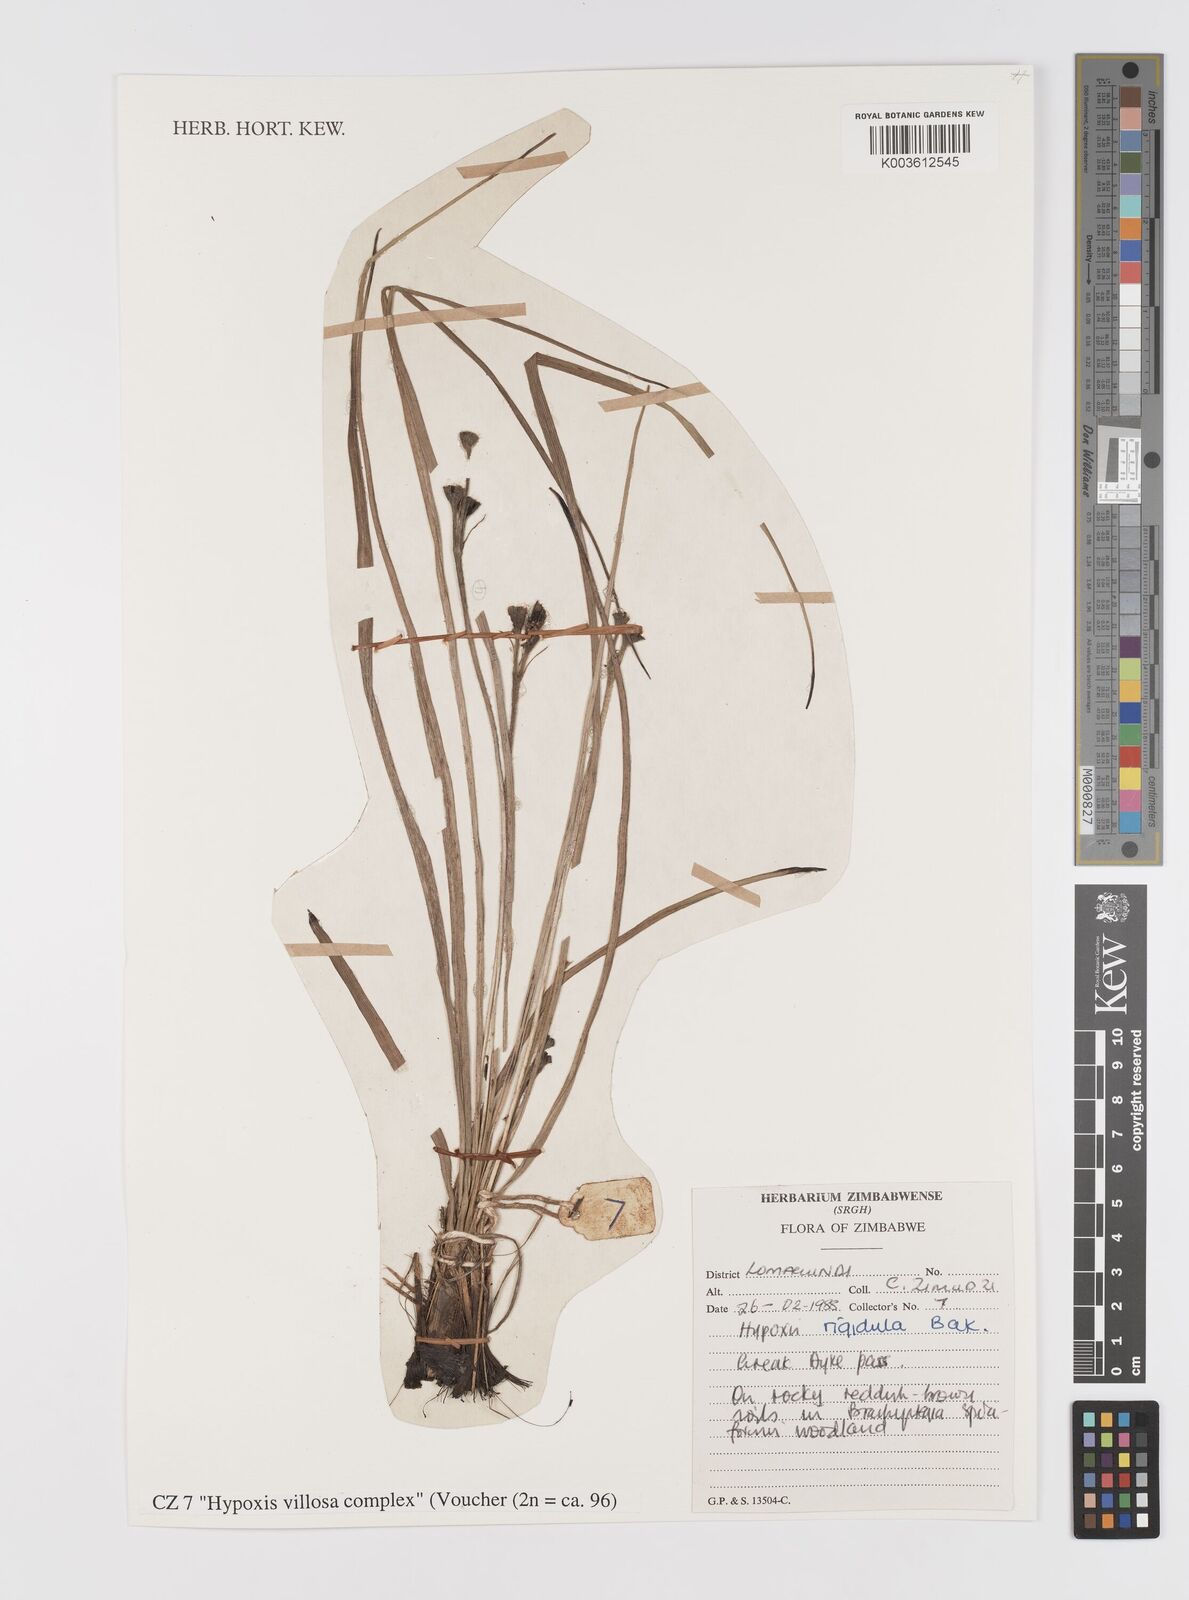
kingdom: Plantae
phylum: Tracheophyta
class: Liliopsida
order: Asparagales
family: Hypoxidaceae
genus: Hypoxis
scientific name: Hypoxis villosa
